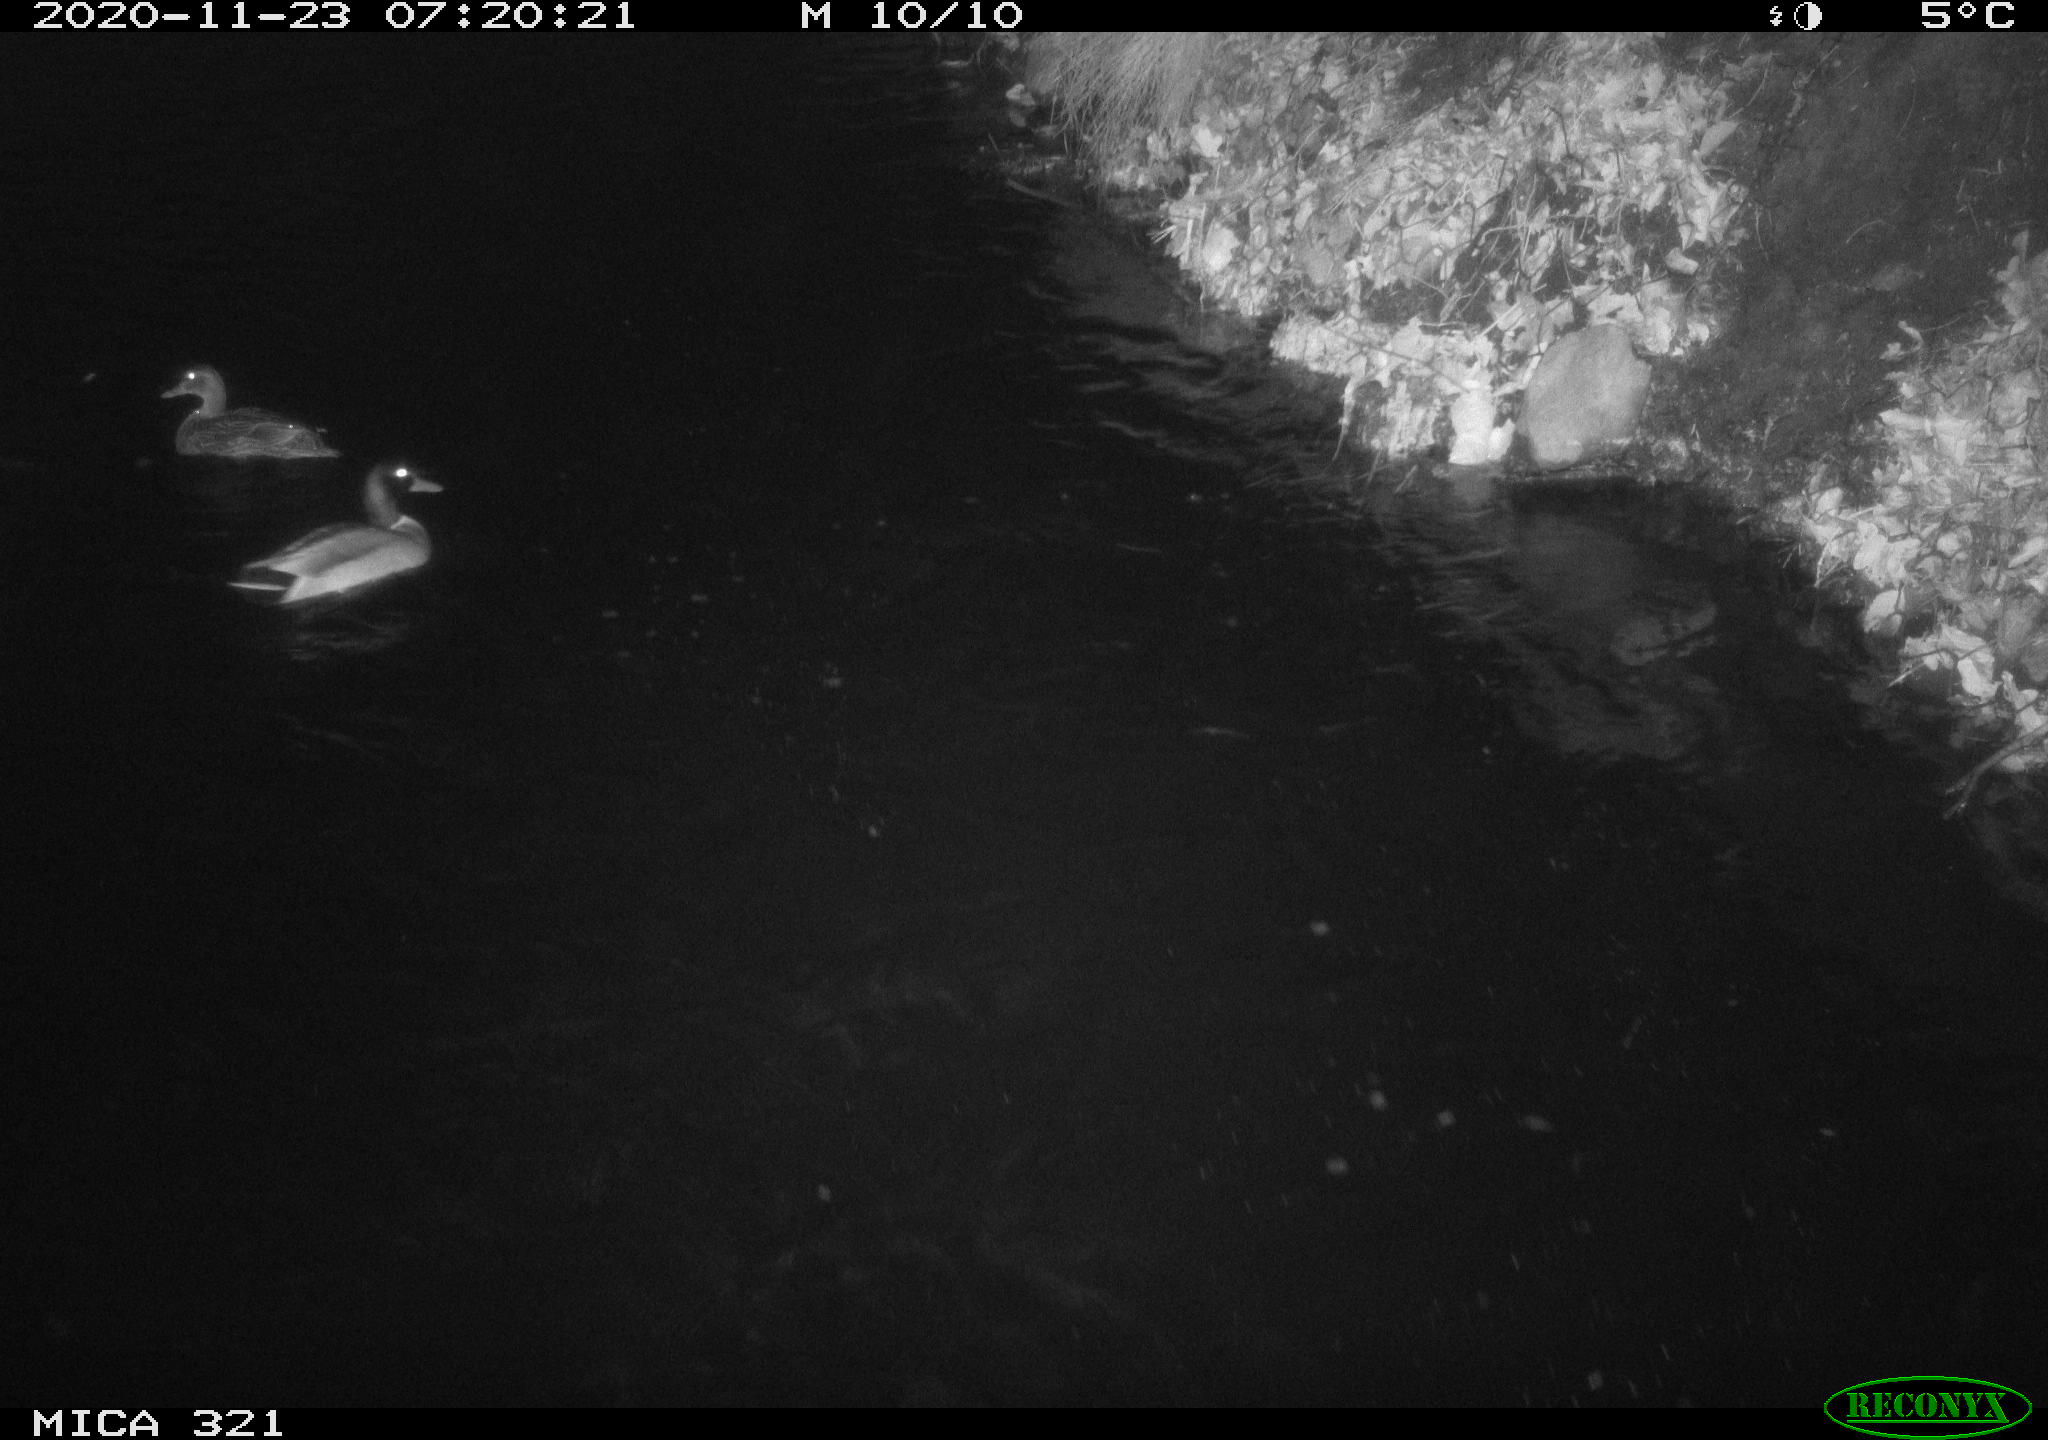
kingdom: Animalia
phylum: Chordata
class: Aves
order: Anseriformes
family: Anatidae
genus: Anas
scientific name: Anas platyrhynchos
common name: Mallard
